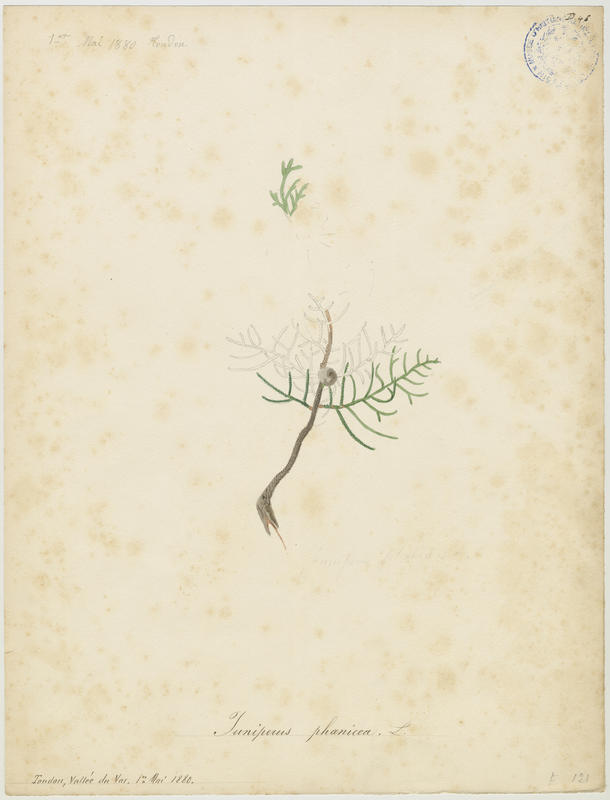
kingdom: Plantae
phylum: Tracheophyta
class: Pinopsida
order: Pinales
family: Cupressaceae
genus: Juniperus
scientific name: Juniperus phoenicea
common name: Phoenician juniper
